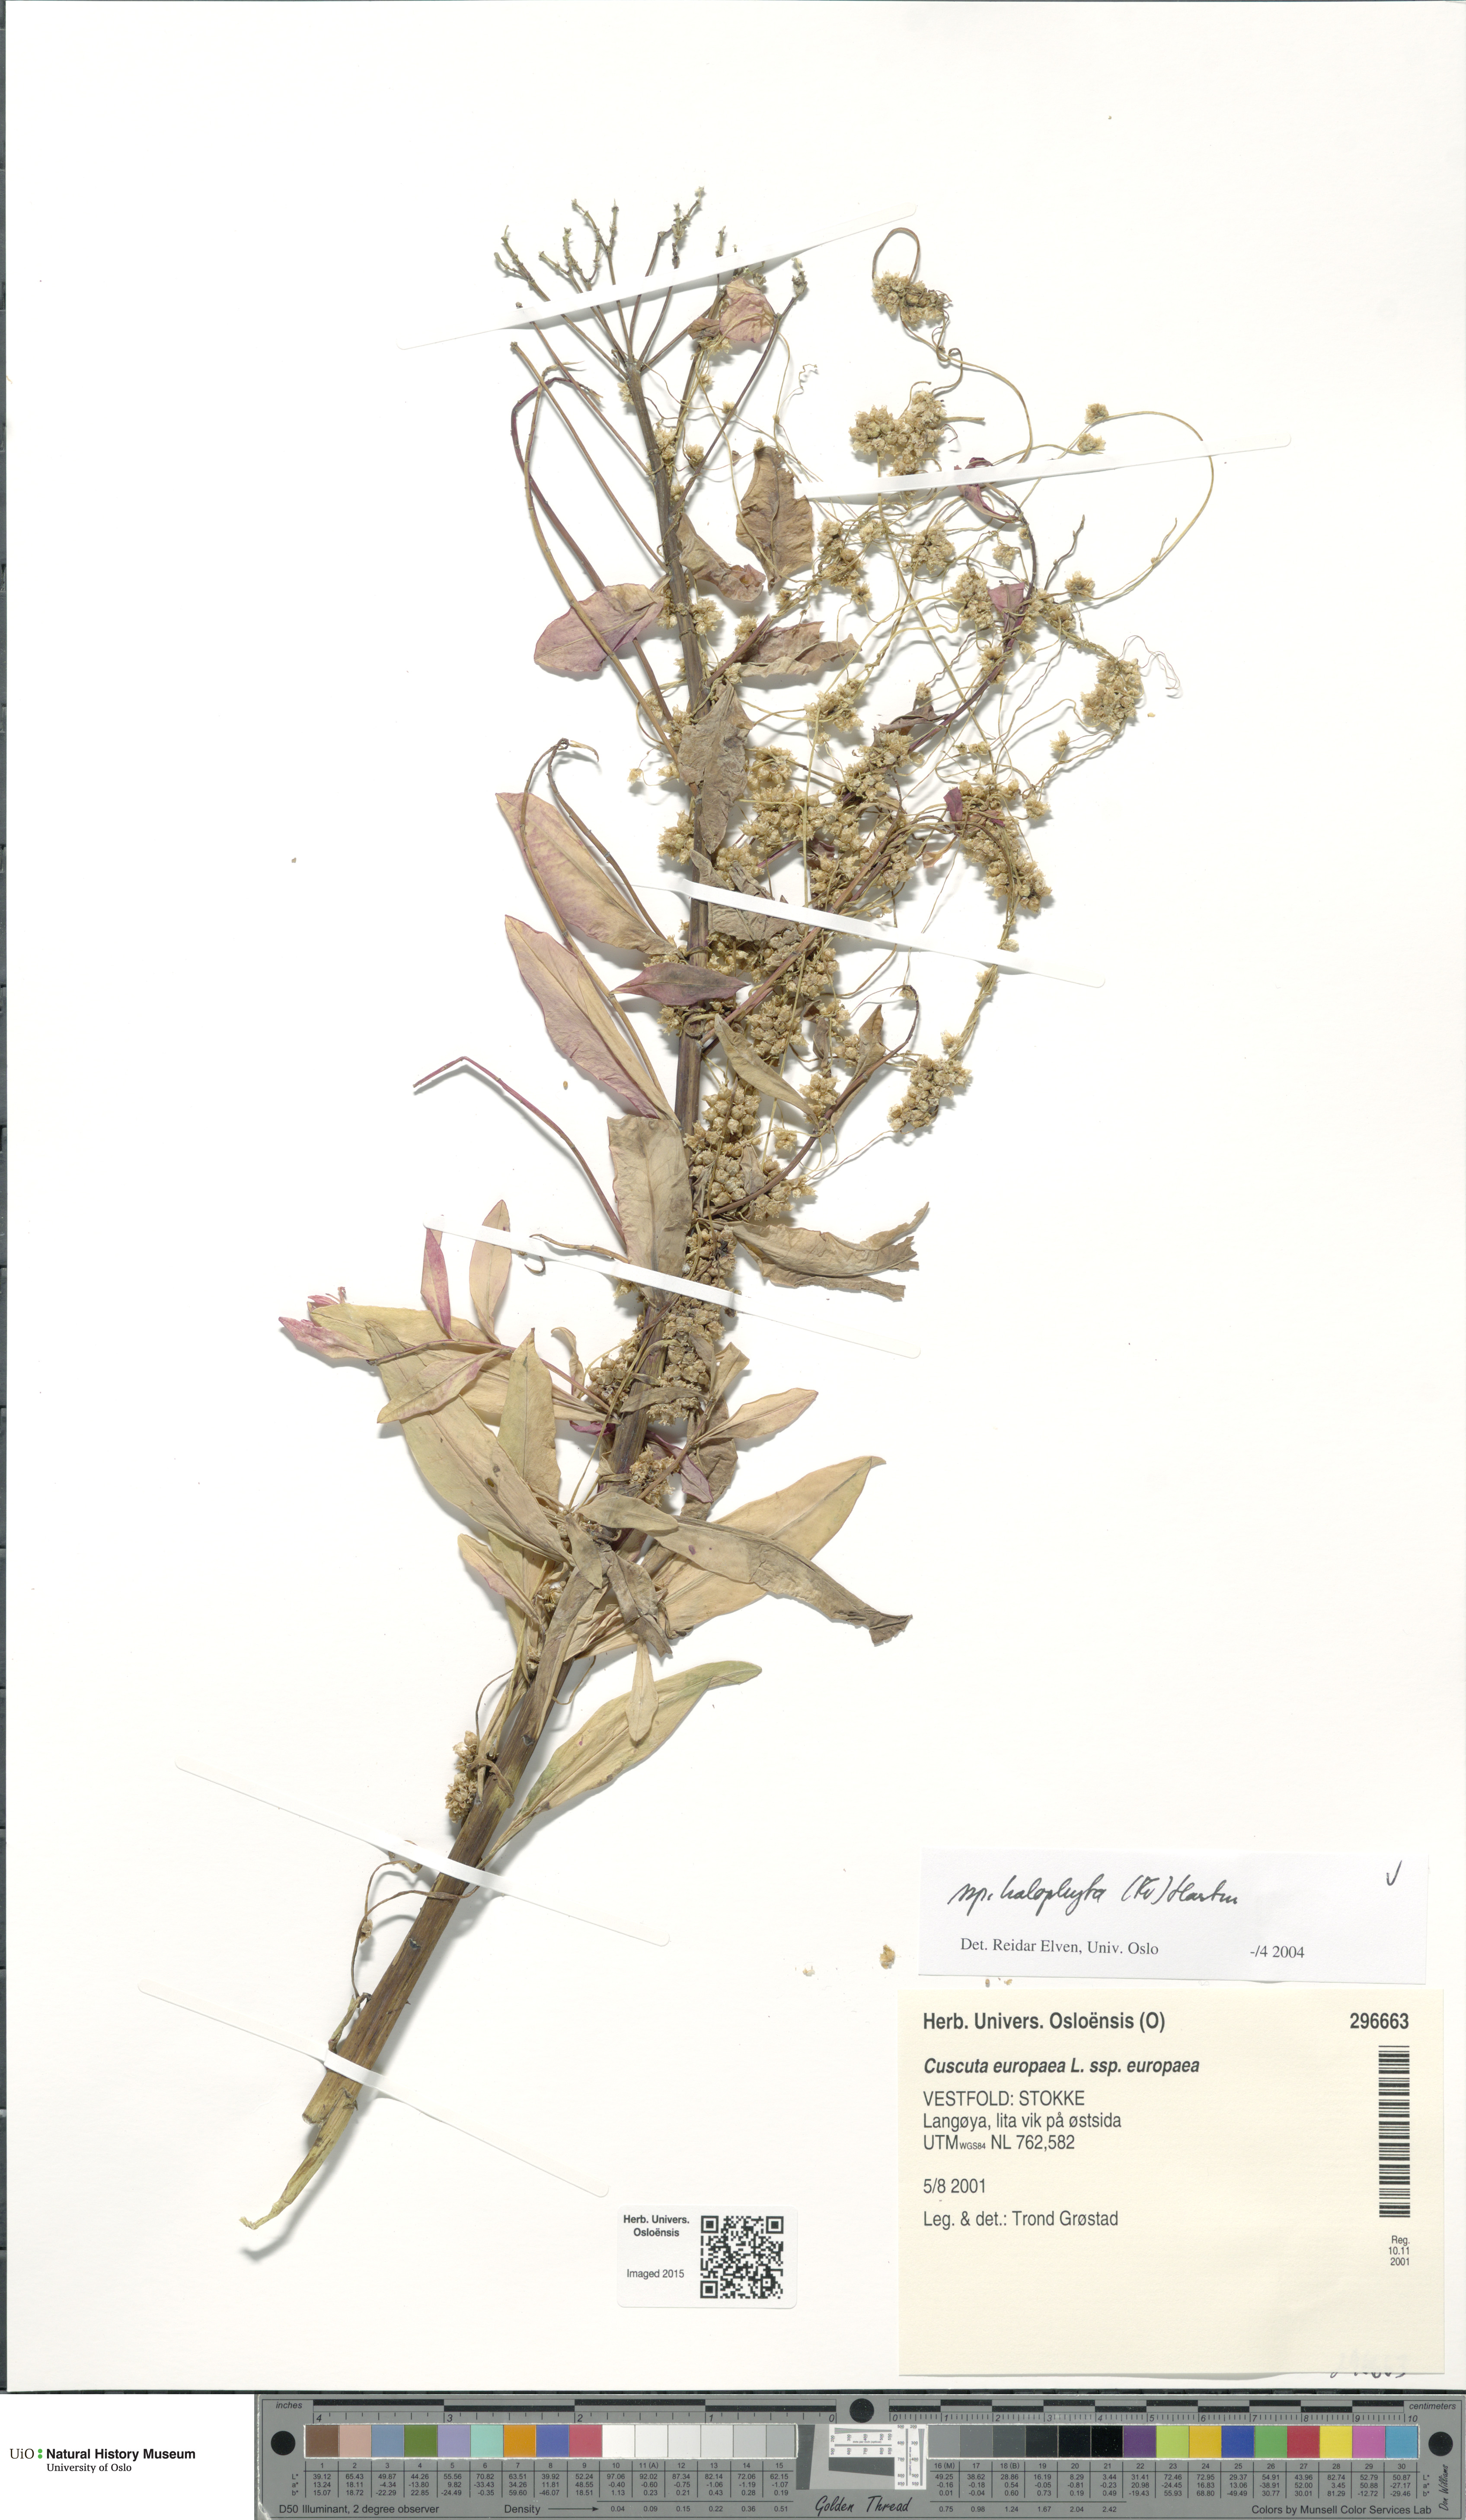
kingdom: Plantae
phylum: Tracheophyta
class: Magnoliopsida
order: Solanales
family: Convolvulaceae
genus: Cuscuta
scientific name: Cuscuta europaea
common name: Greater dodder
